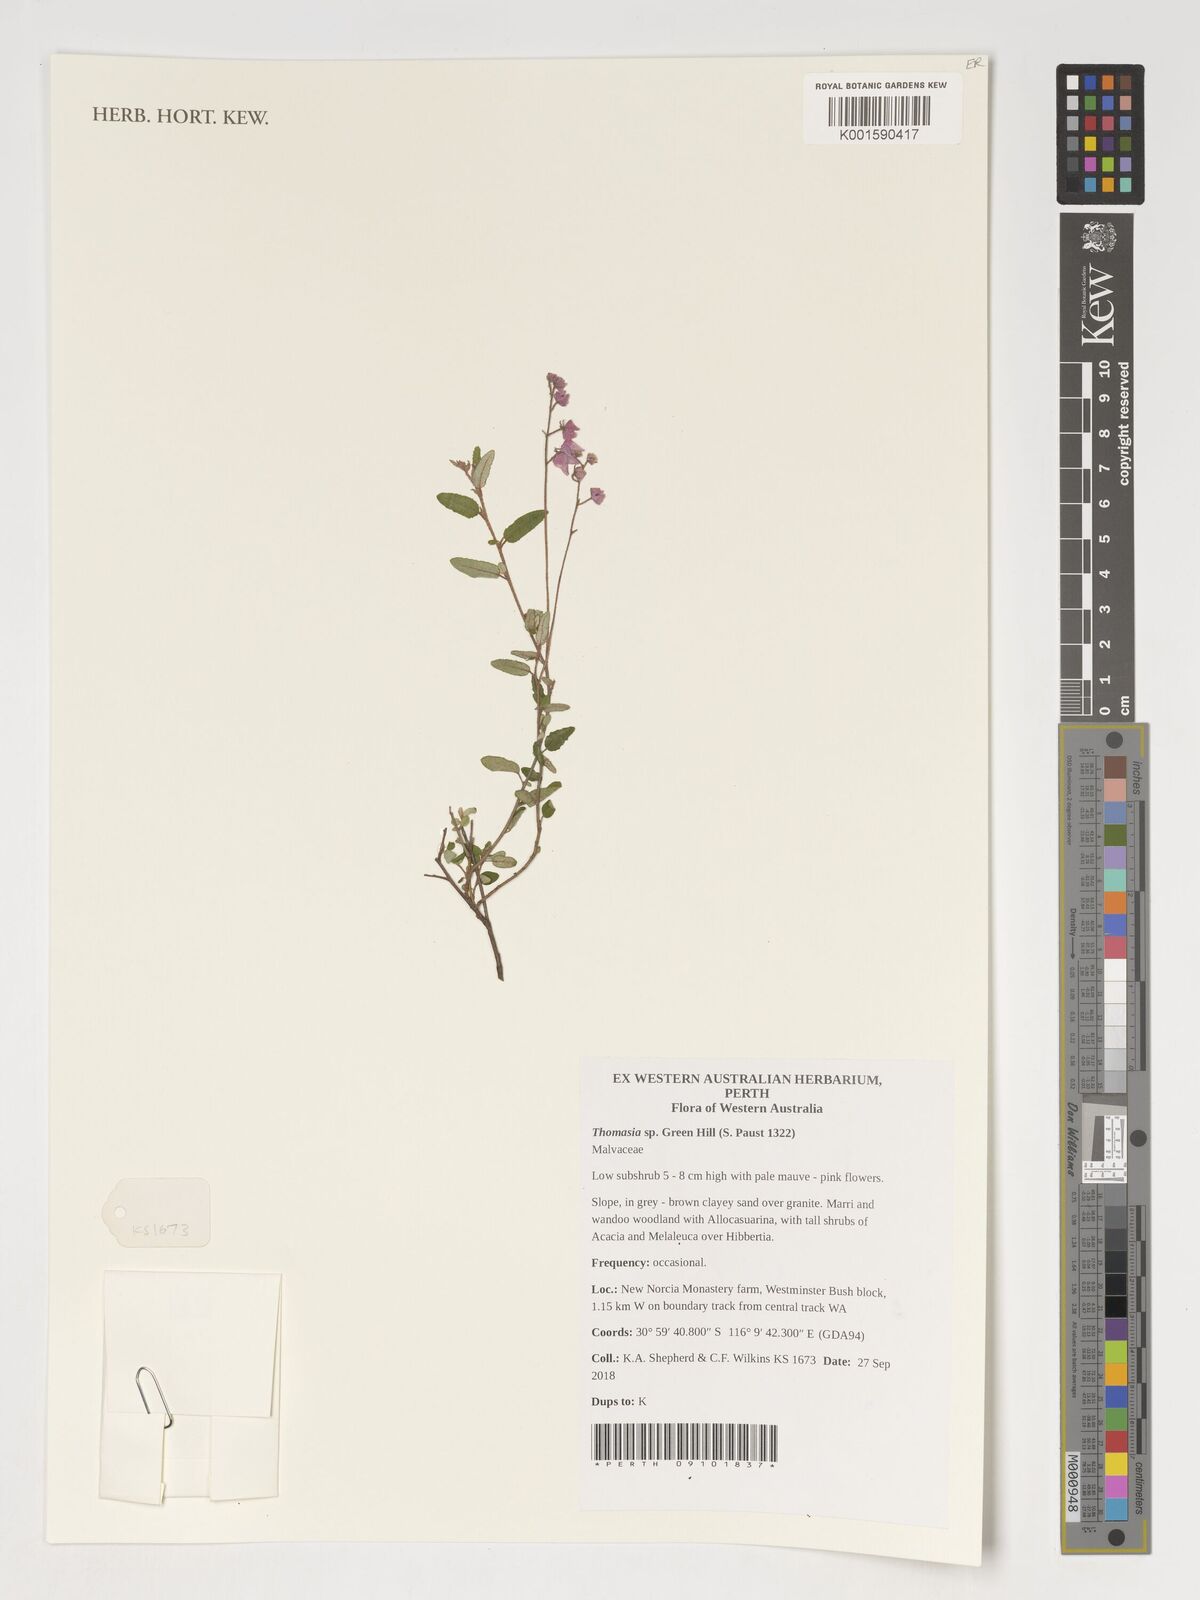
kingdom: Plantae
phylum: Tracheophyta
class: Magnoliopsida
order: Malvales
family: Malvaceae
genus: Thomasia
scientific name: Thomasia
